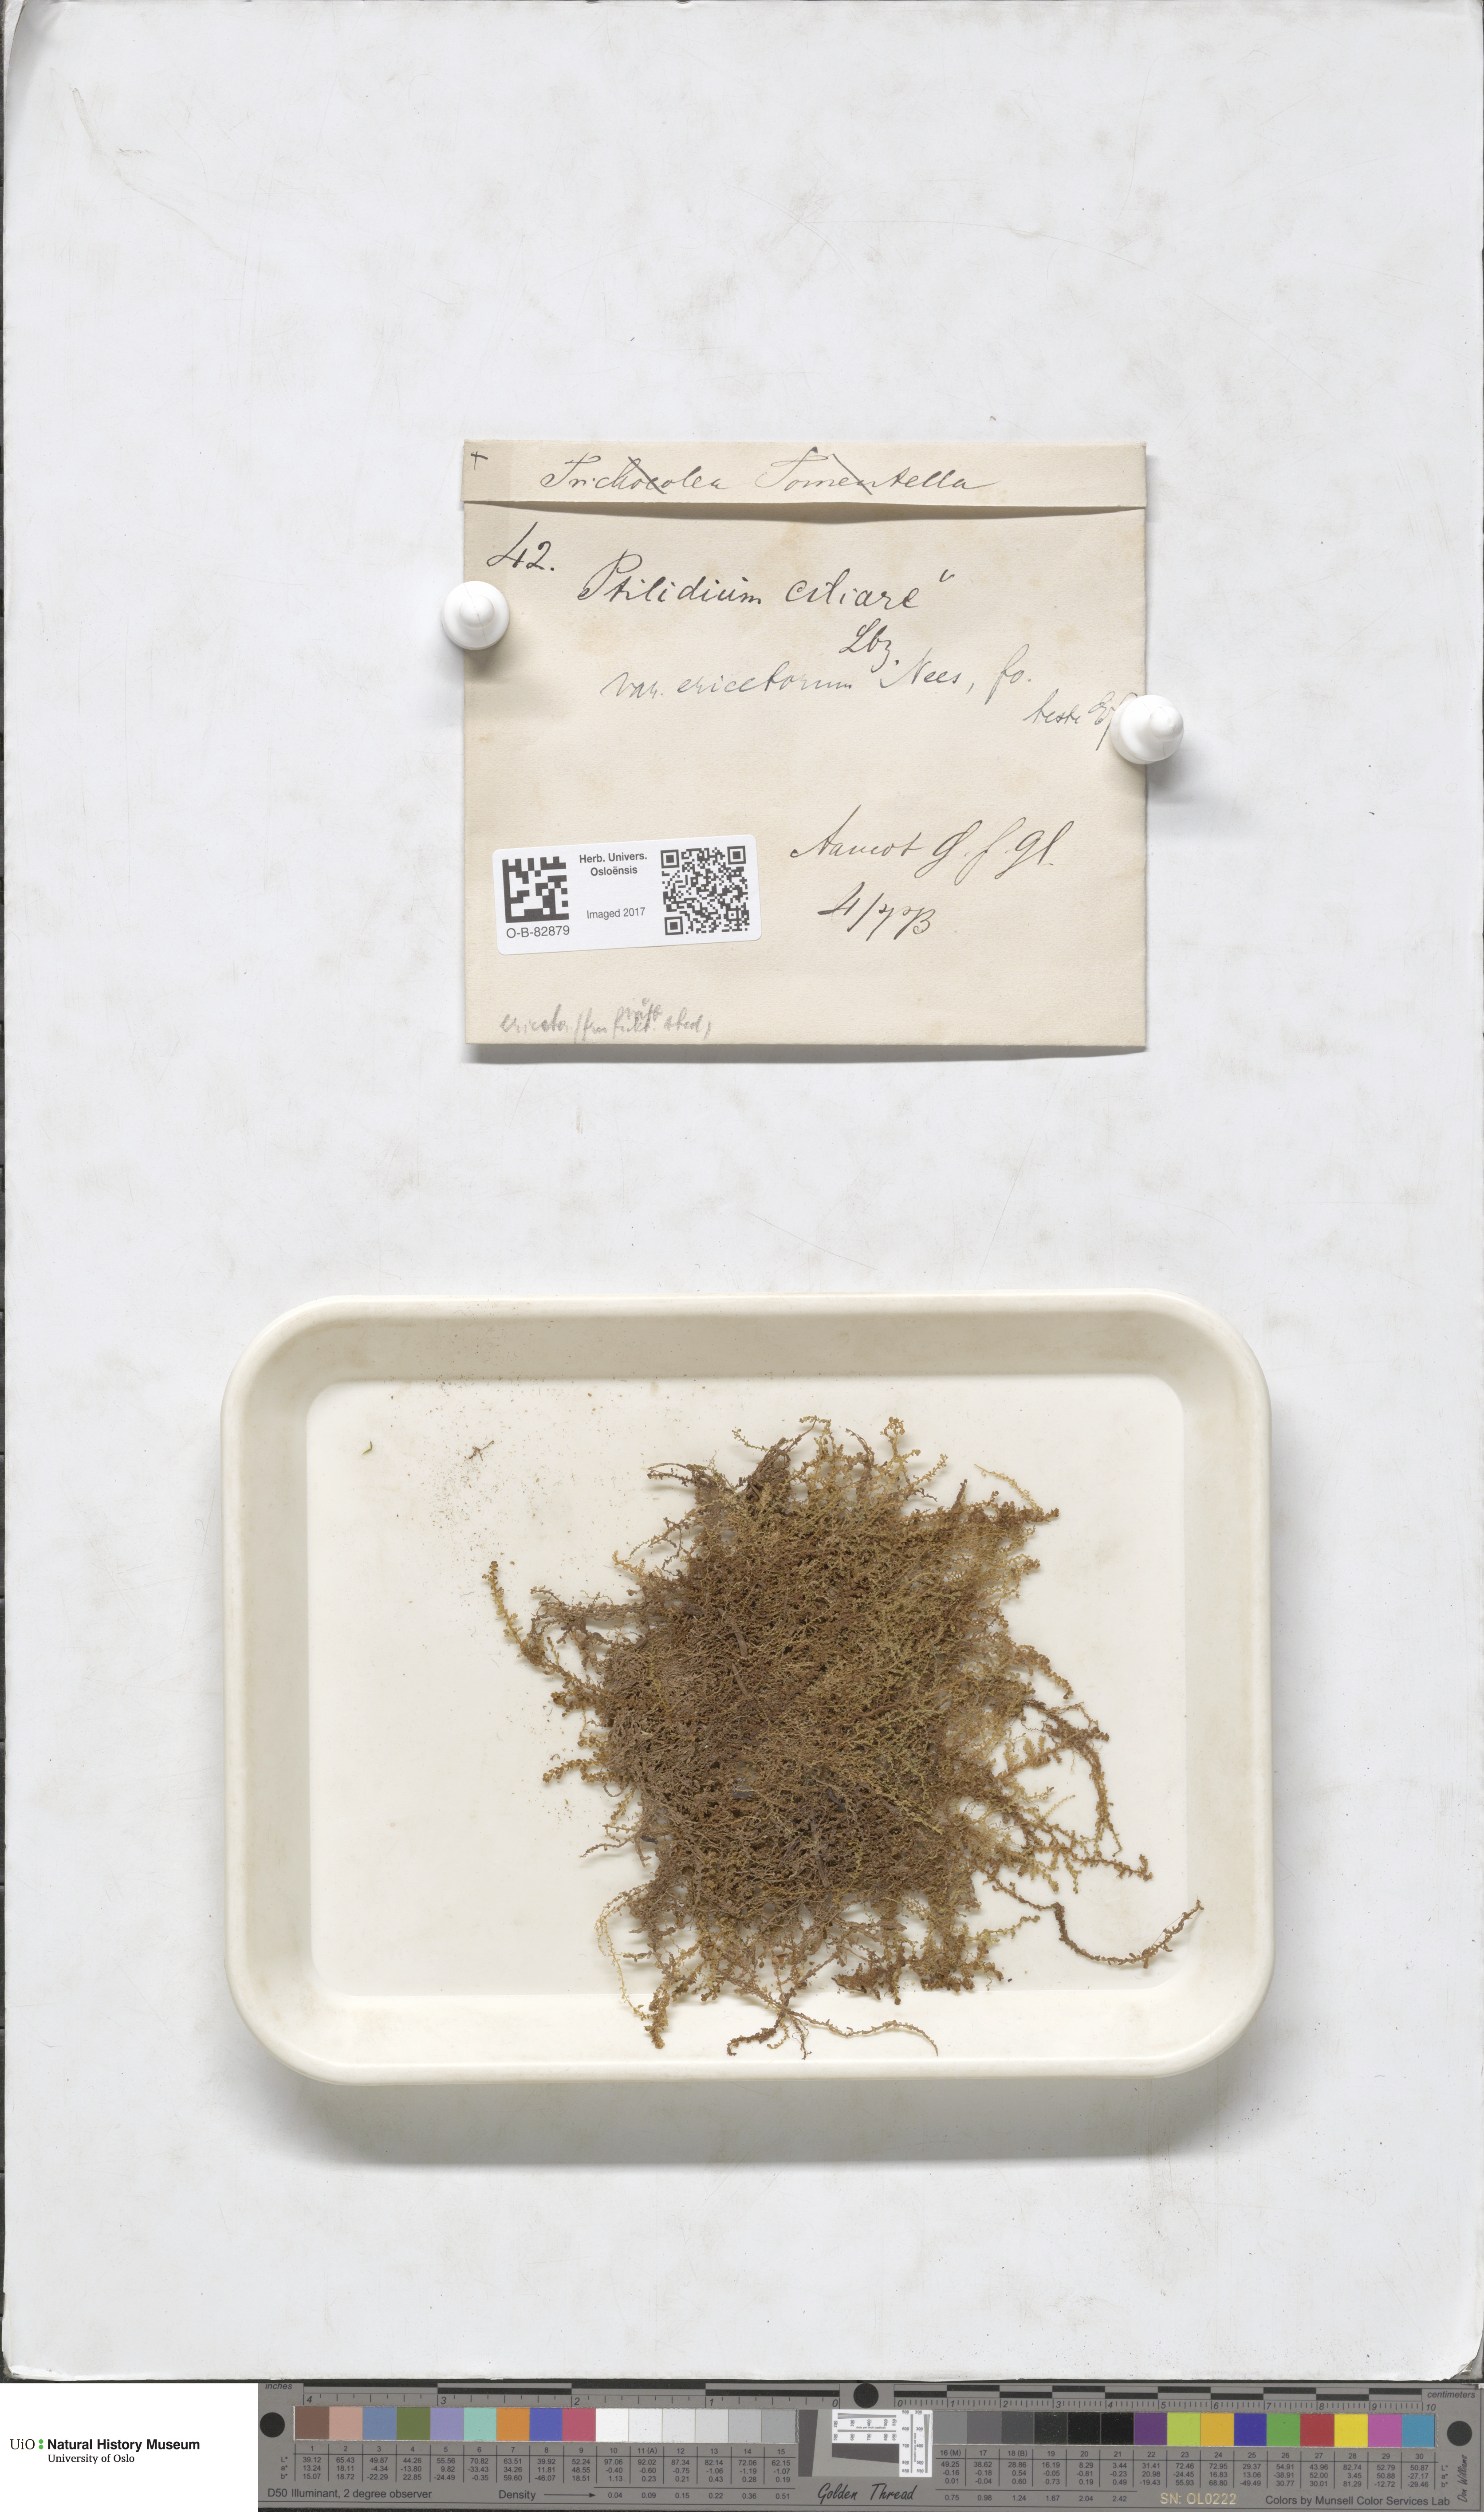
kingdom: Plantae
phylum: Marchantiophyta
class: Jungermanniopsida
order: Ptilidiales
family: Ptilidiaceae
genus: Ptilidium
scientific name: Ptilidium ciliare
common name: Ciliate fringewort
